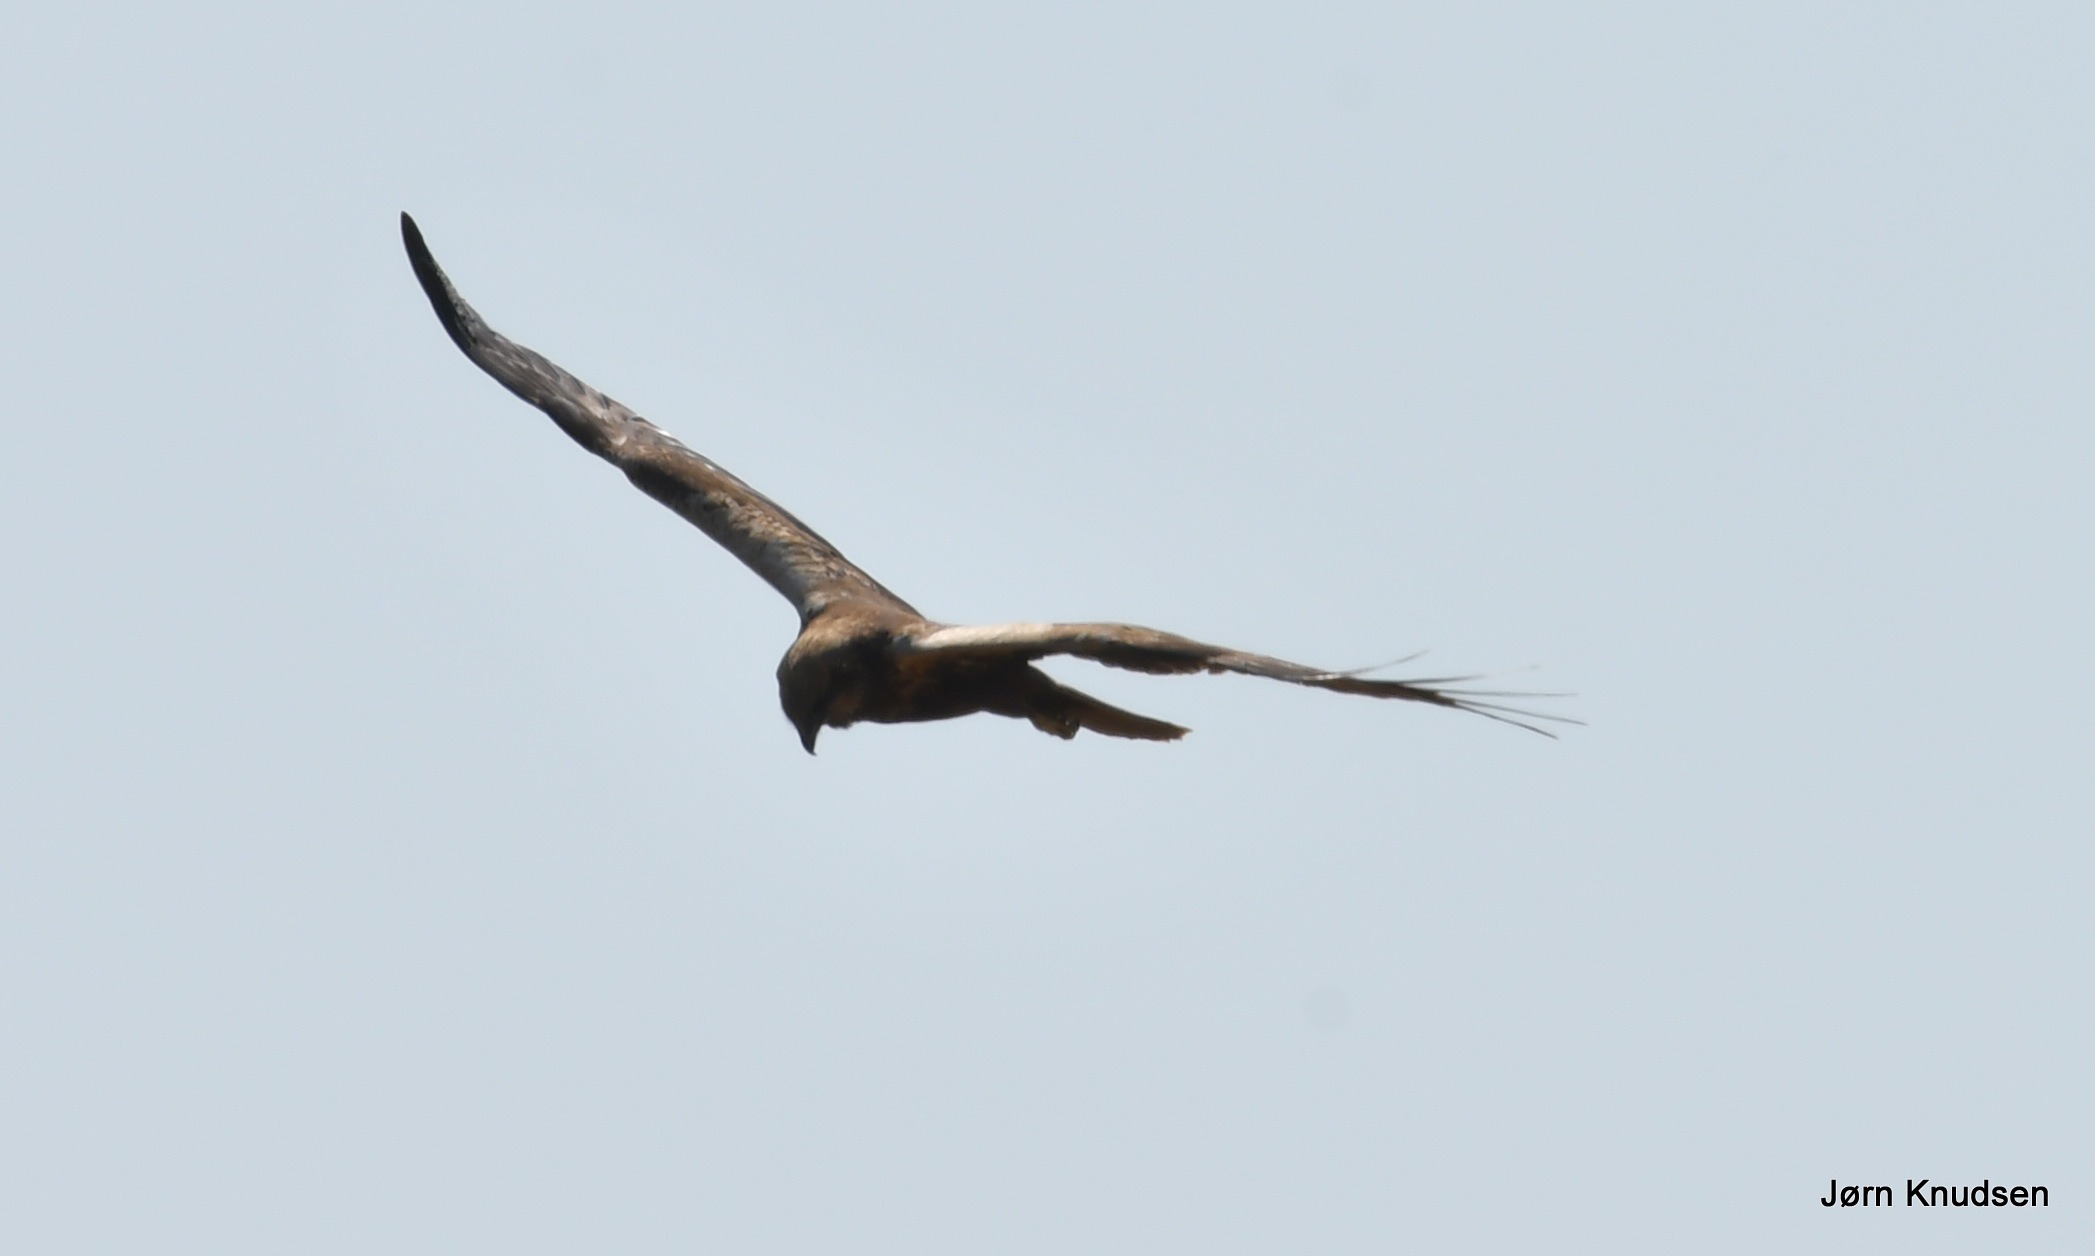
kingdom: Animalia
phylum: Chordata
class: Aves
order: Accipitriformes
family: Accipitridae
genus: Circus
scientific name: Circus aeruginosus
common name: Rørhøg
